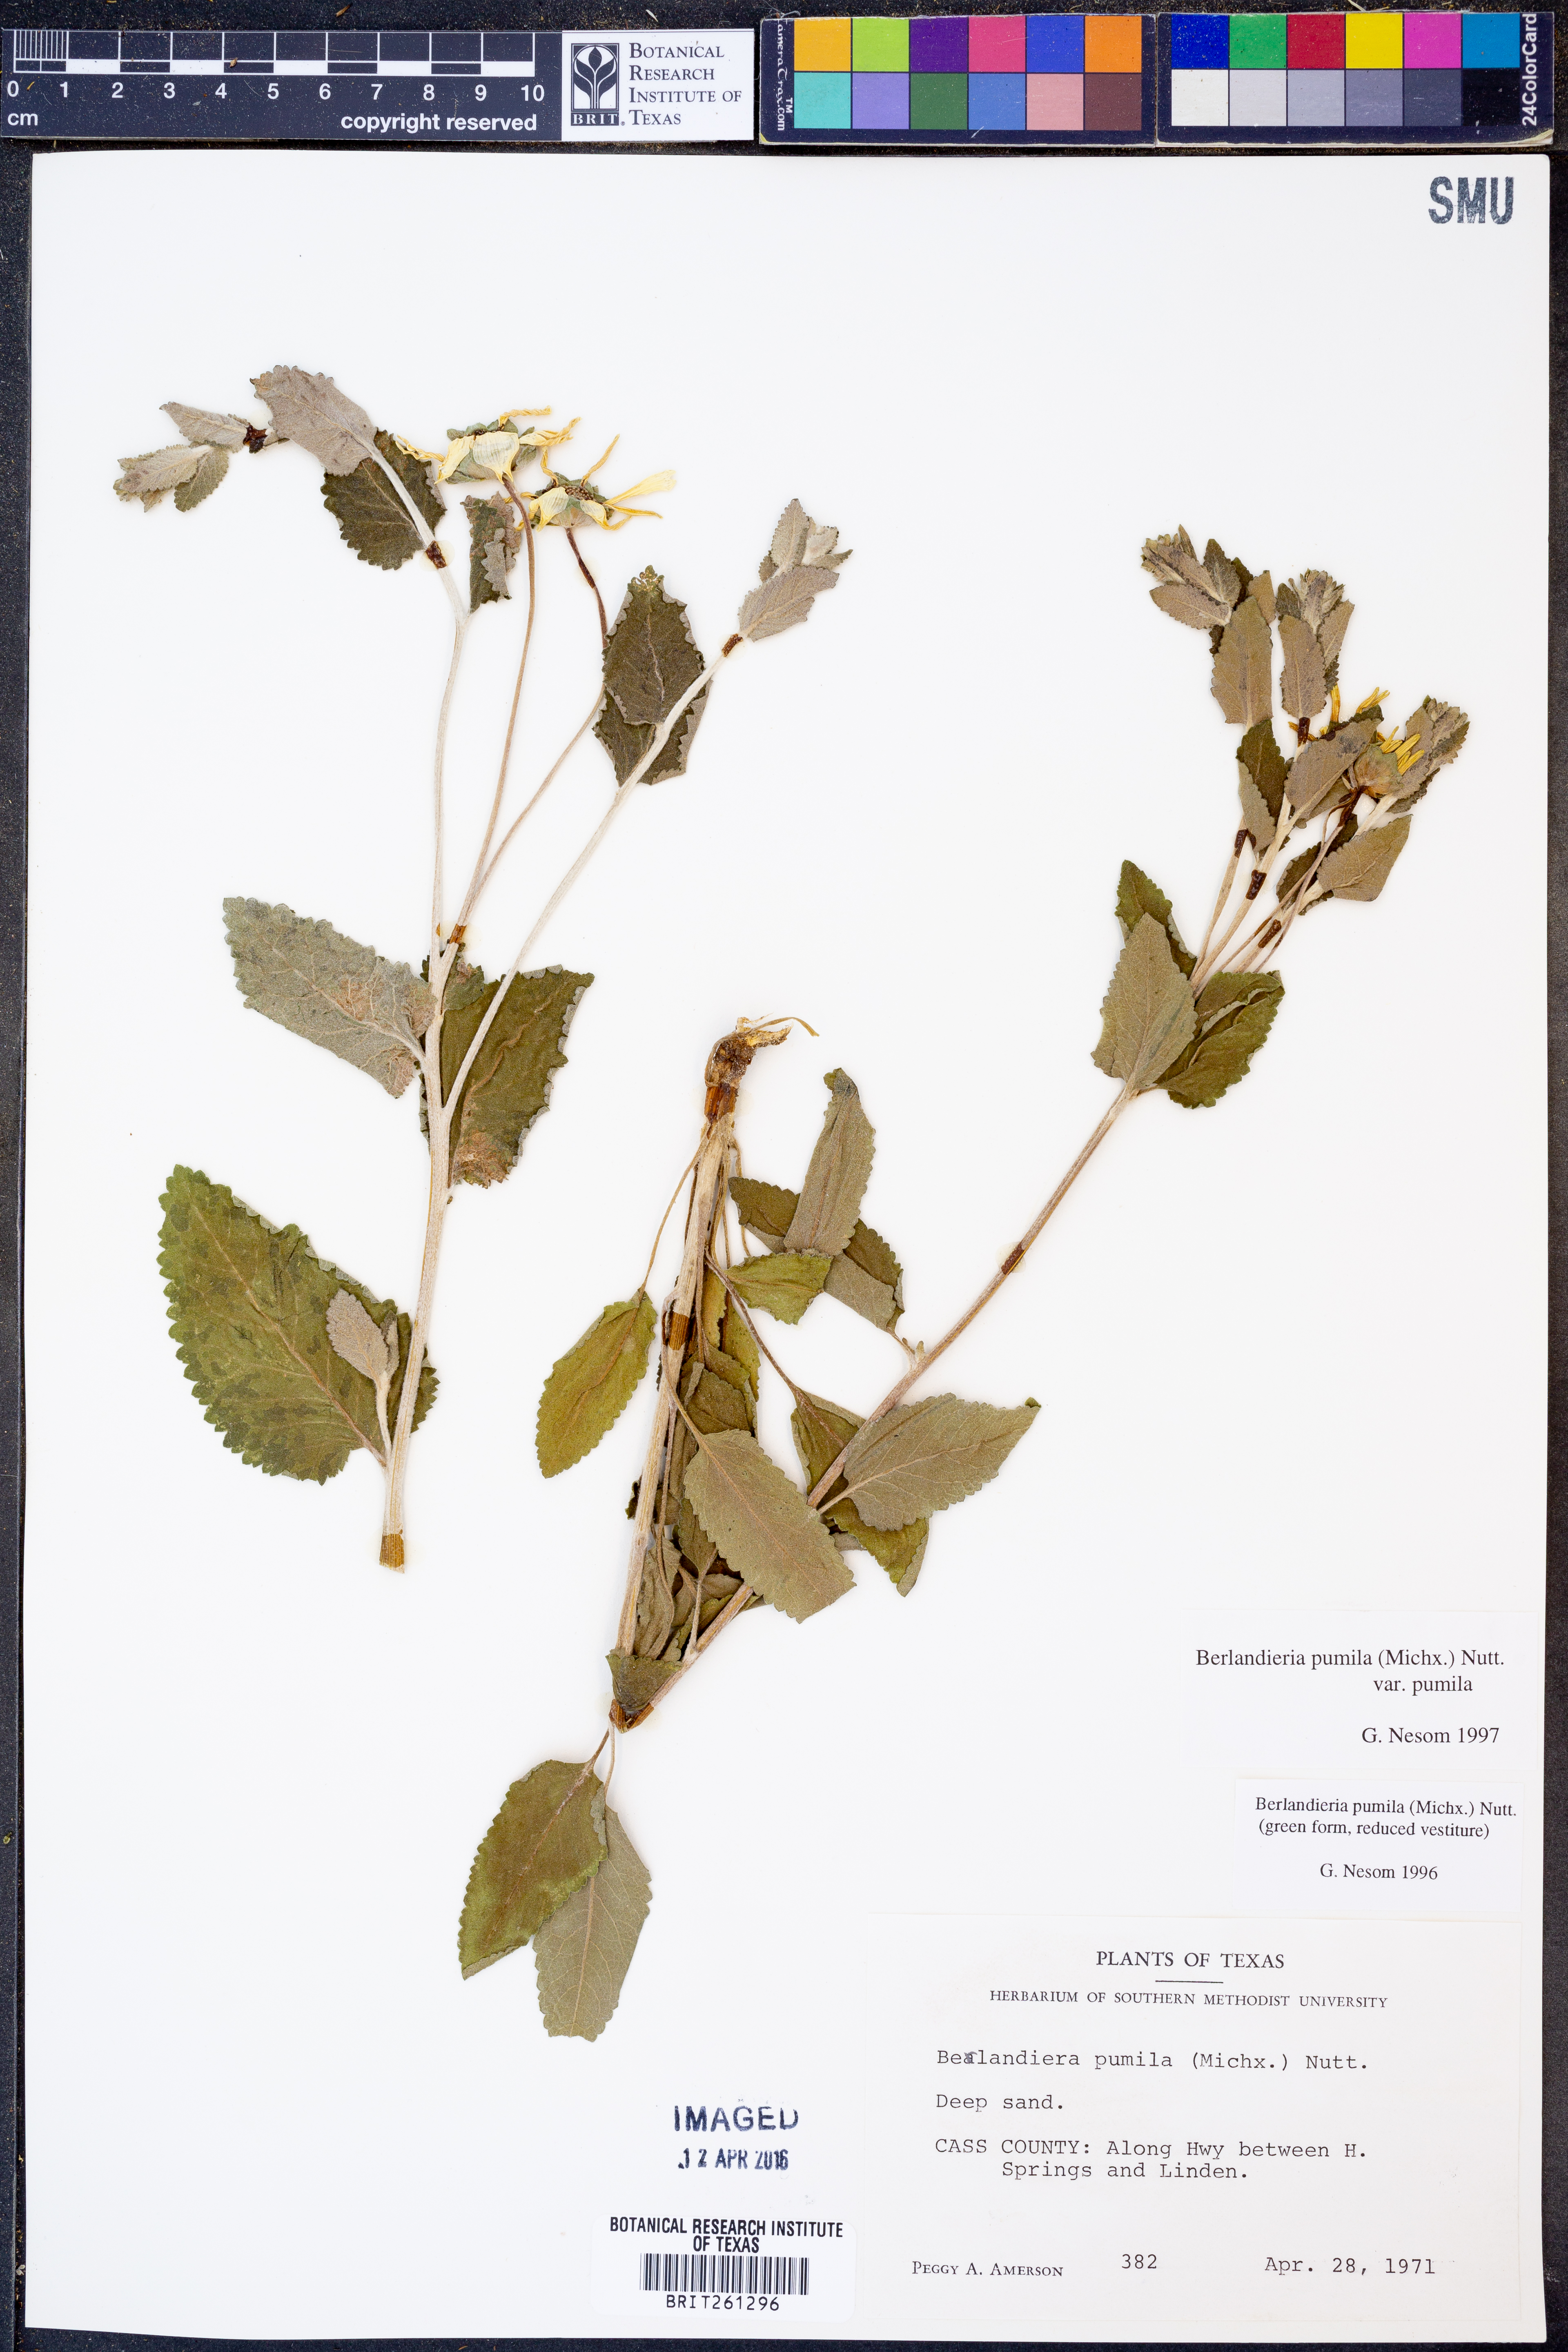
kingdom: Plantae
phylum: Tracheophyta
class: Magnoliopsida
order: Asterales
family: Asteraceae
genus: Berlandiera
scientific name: Berlandiera pumila
